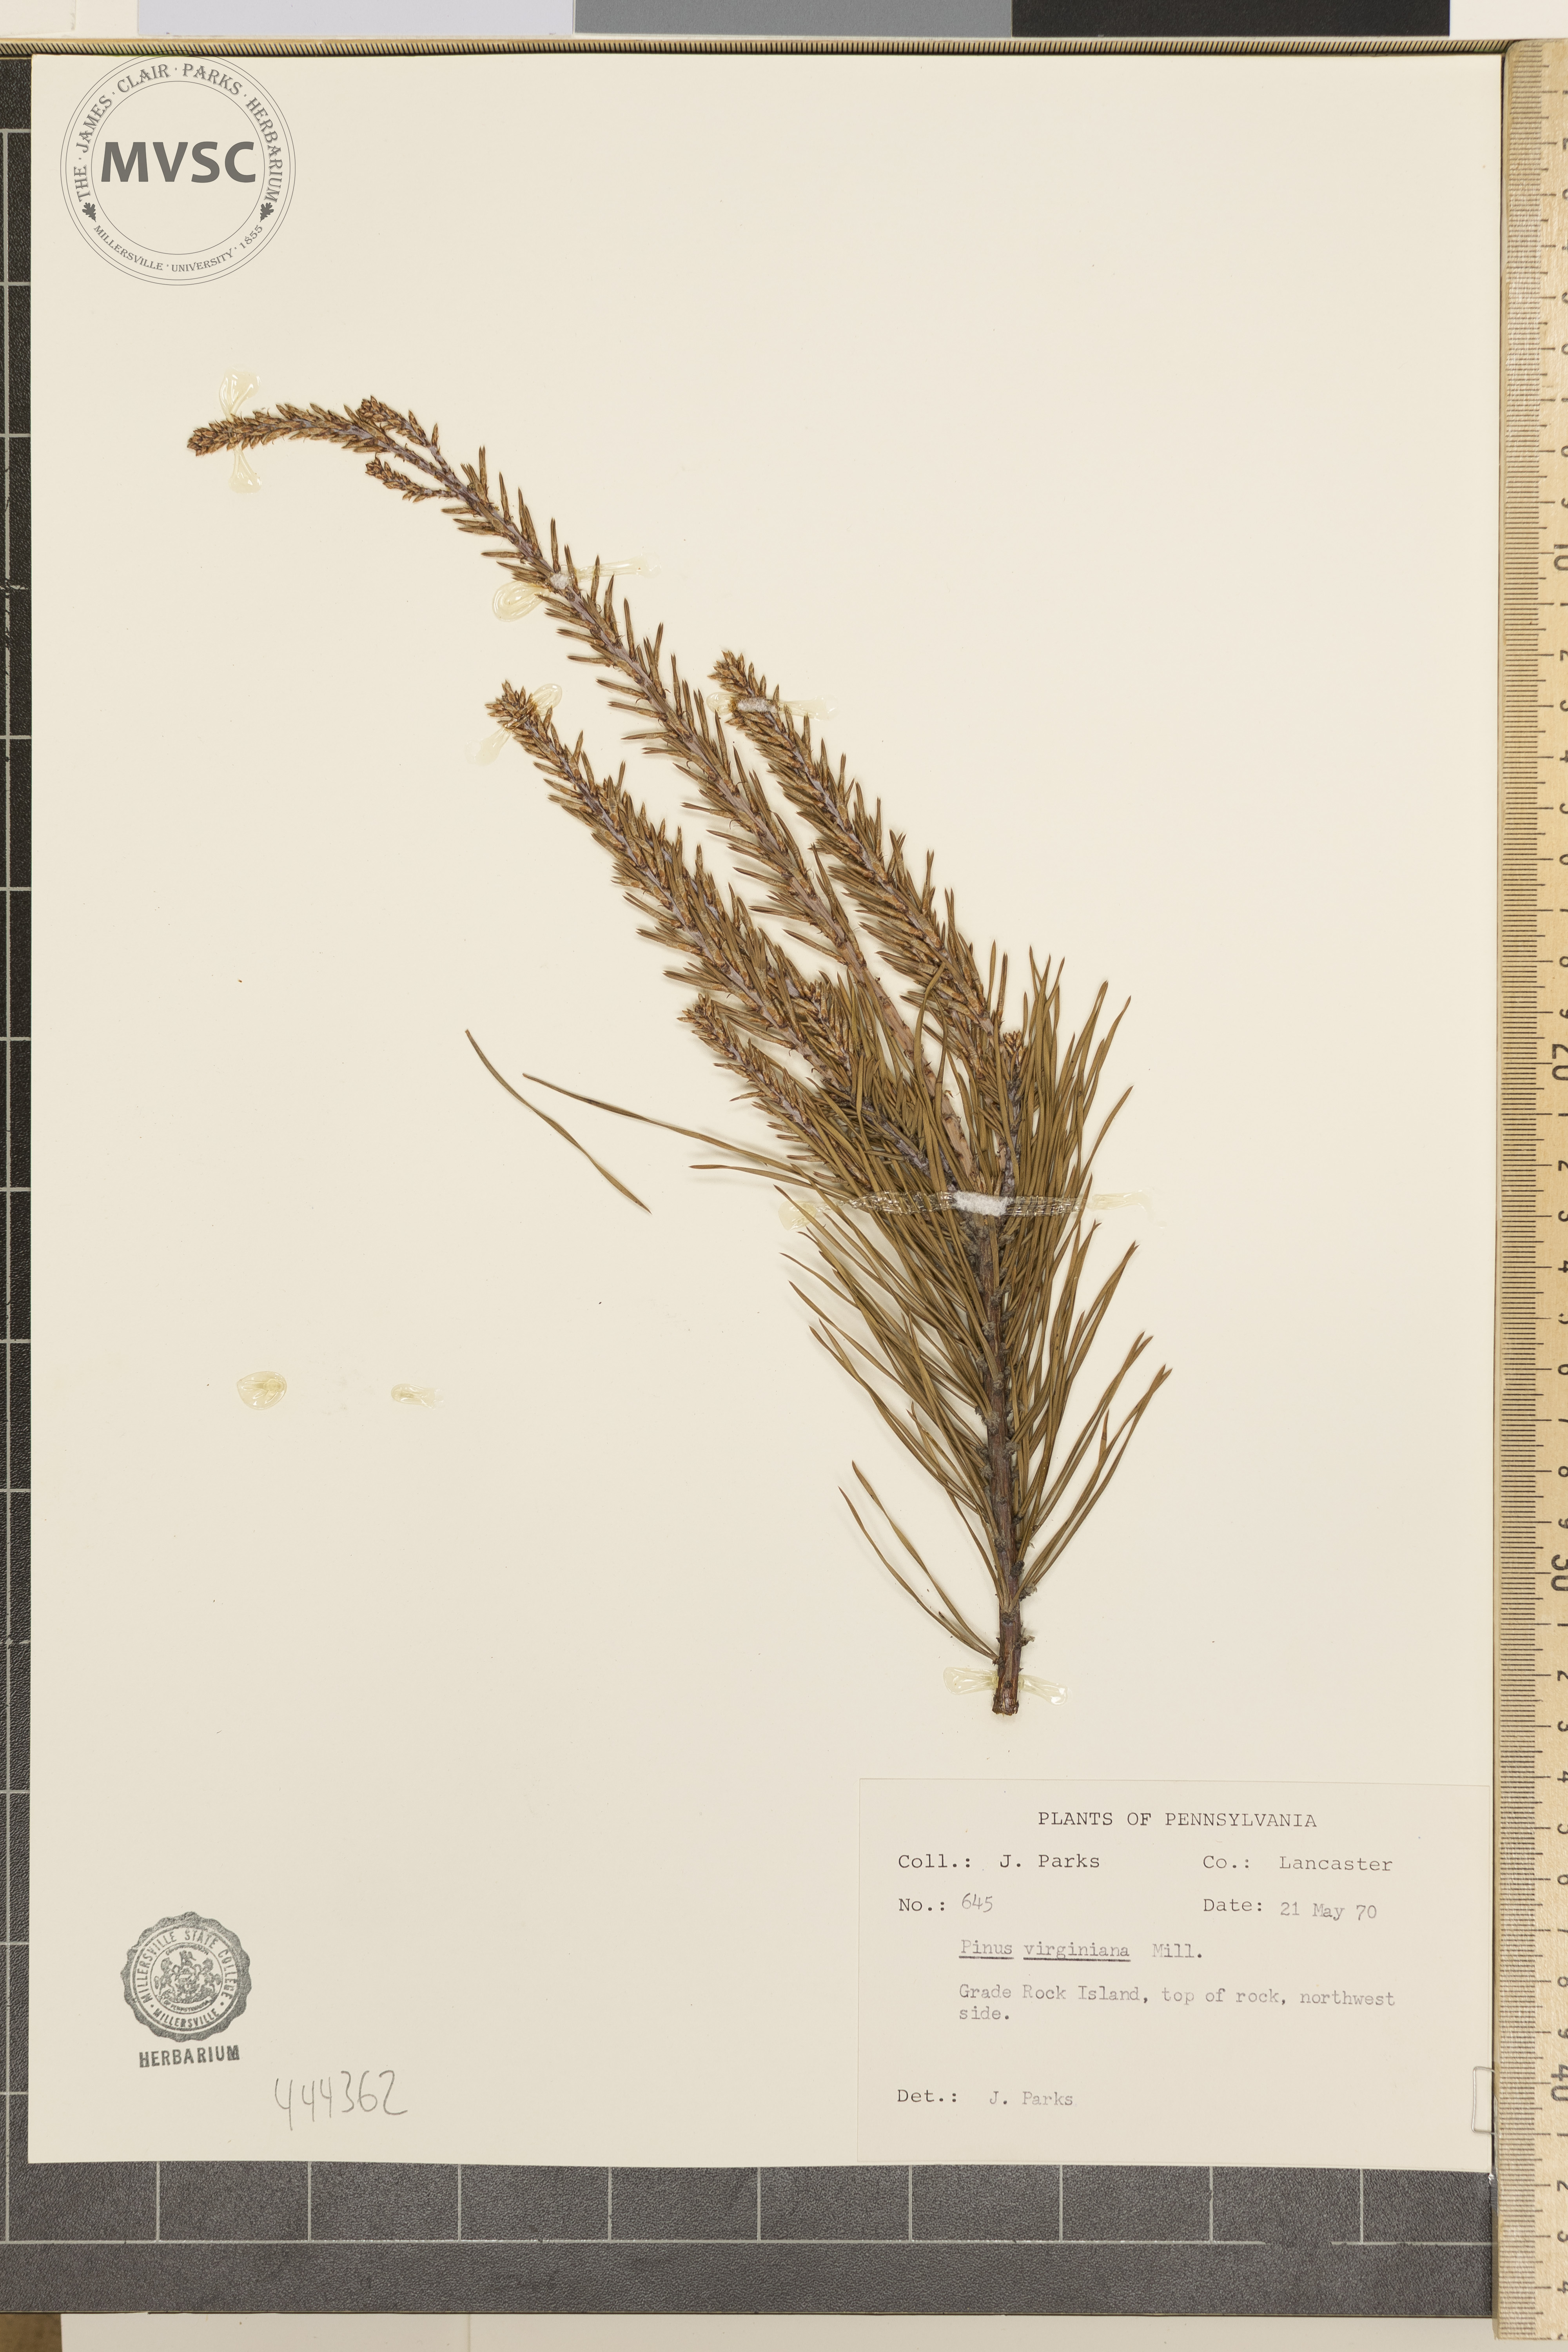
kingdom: Plantae
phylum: Tracheophyta
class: Pinopsida
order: Pinales
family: Pinaceae
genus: Pinus
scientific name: Pinus virginiana
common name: Scrub pine
